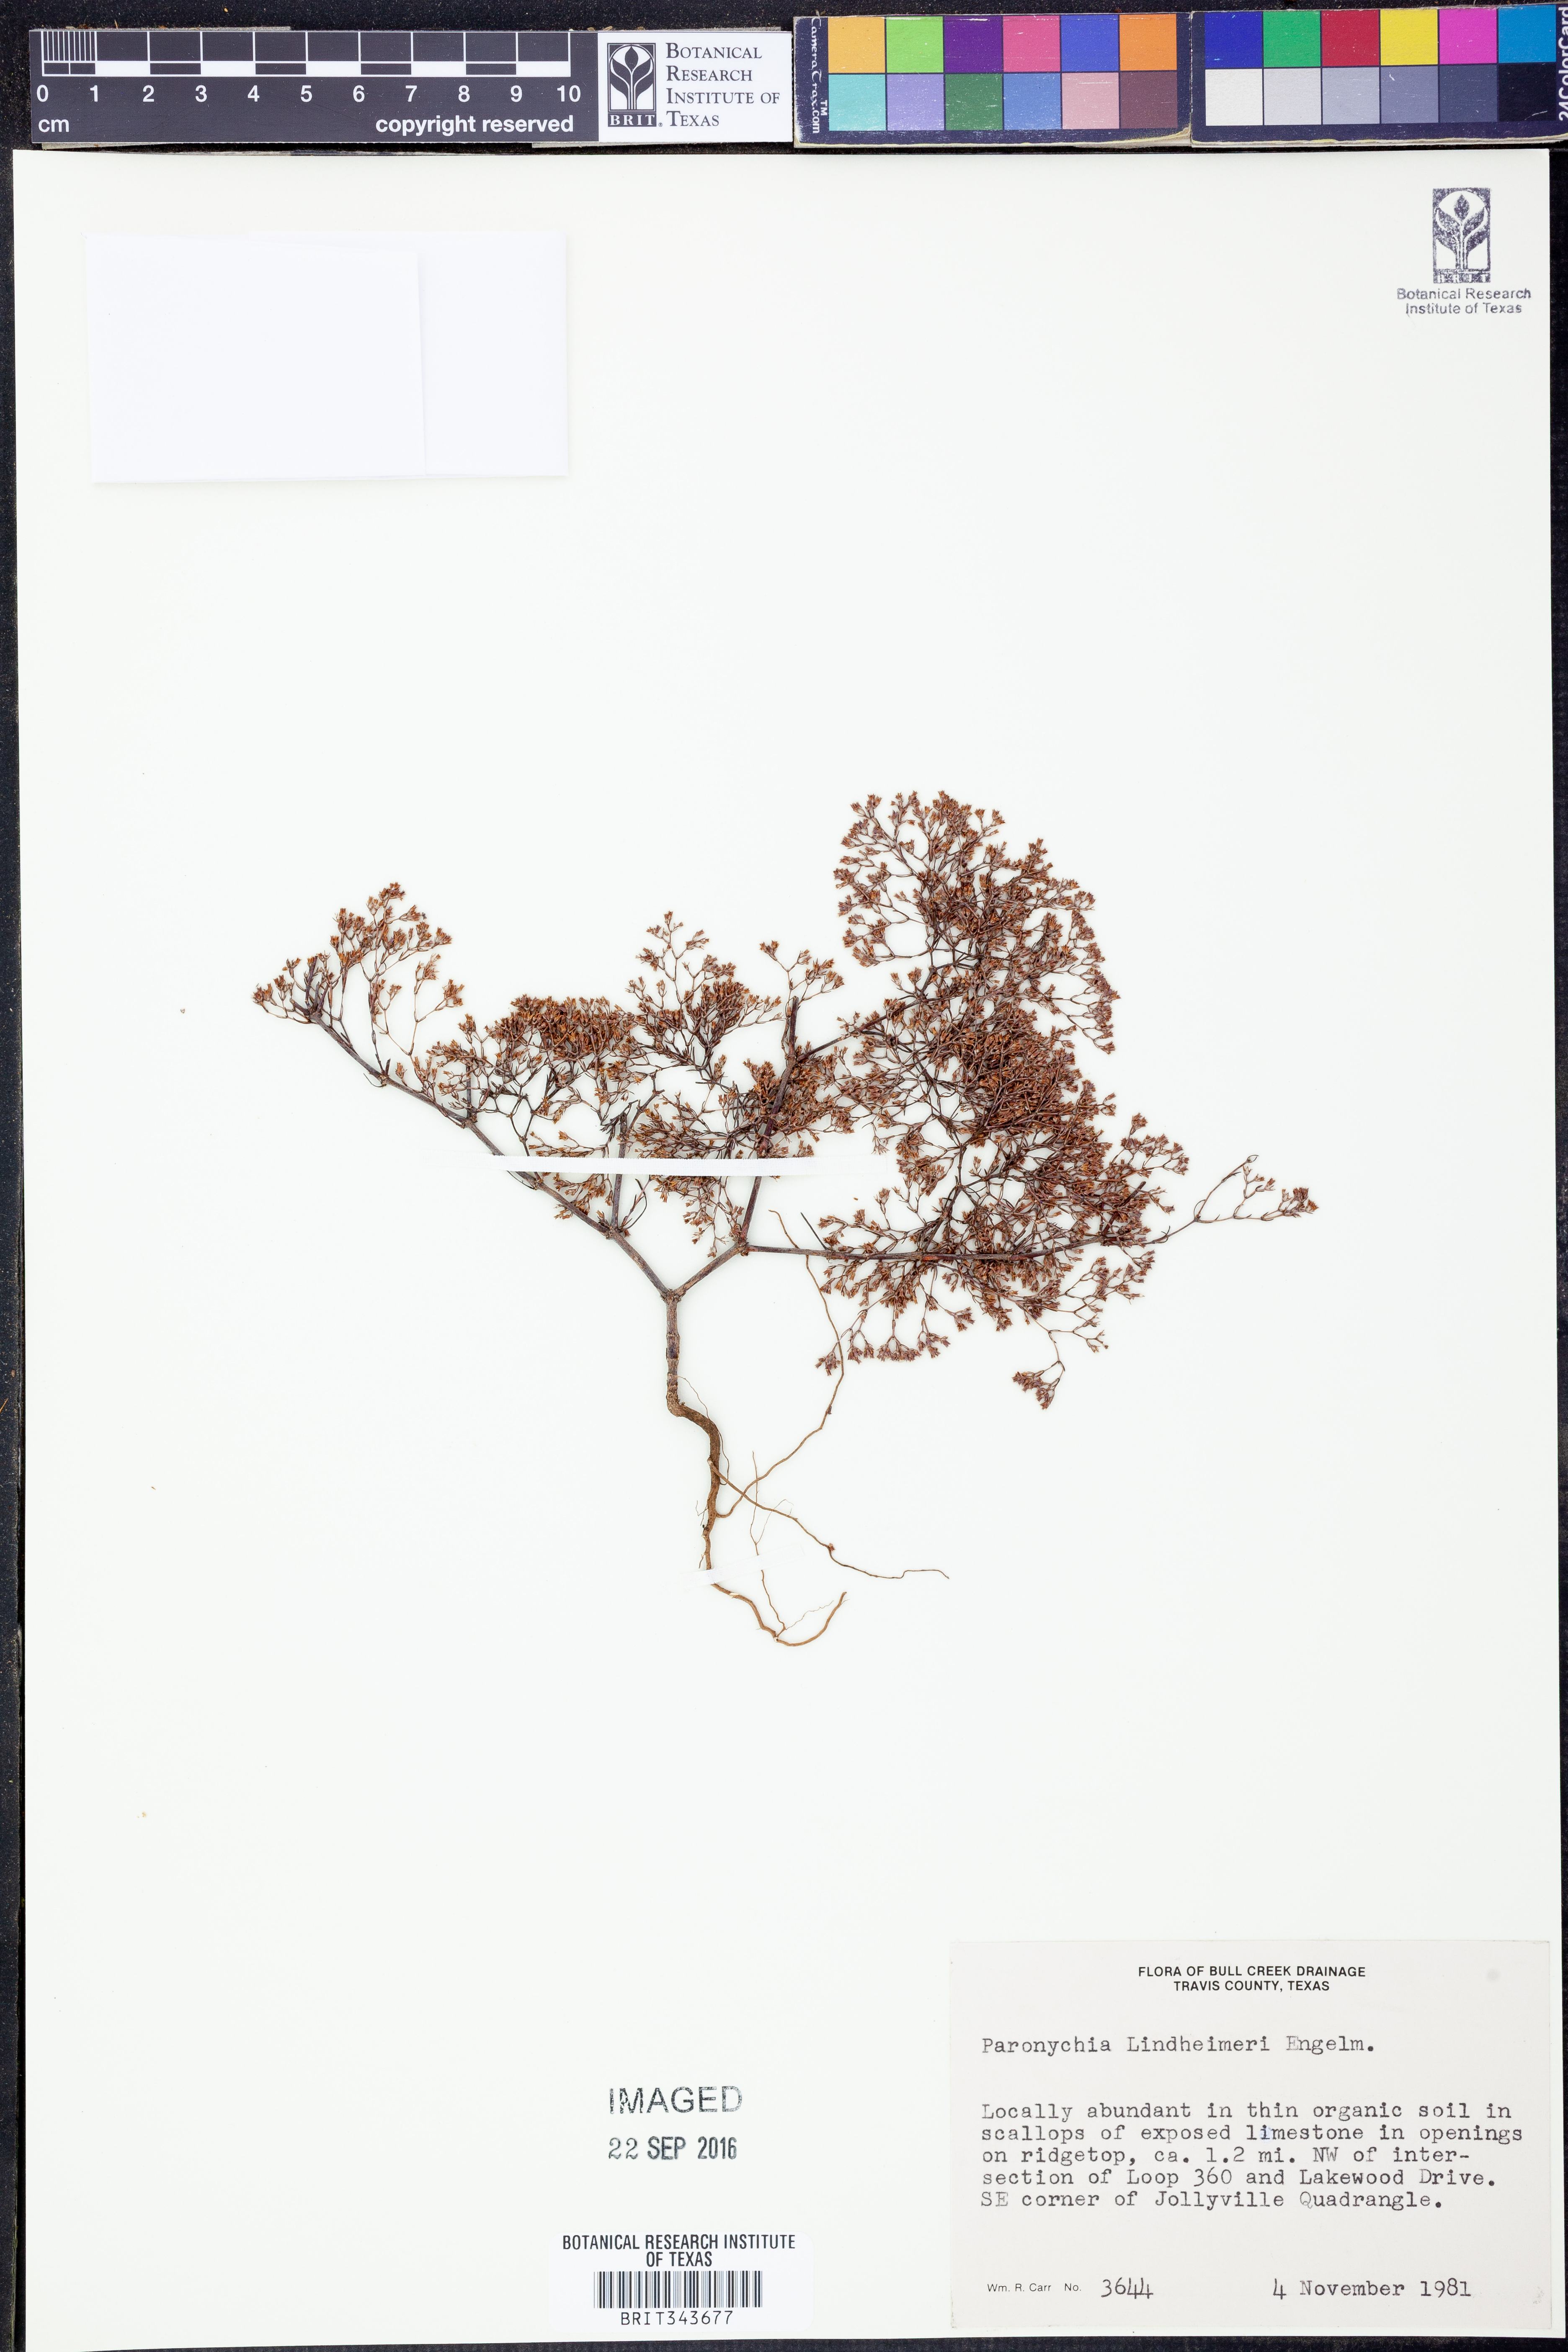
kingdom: Plantae
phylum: Tracheophyta
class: Magnoliopsida
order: Caryophyllales
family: Caryophyllaceae
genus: Paronychia
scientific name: Paronychia lindheimeri
